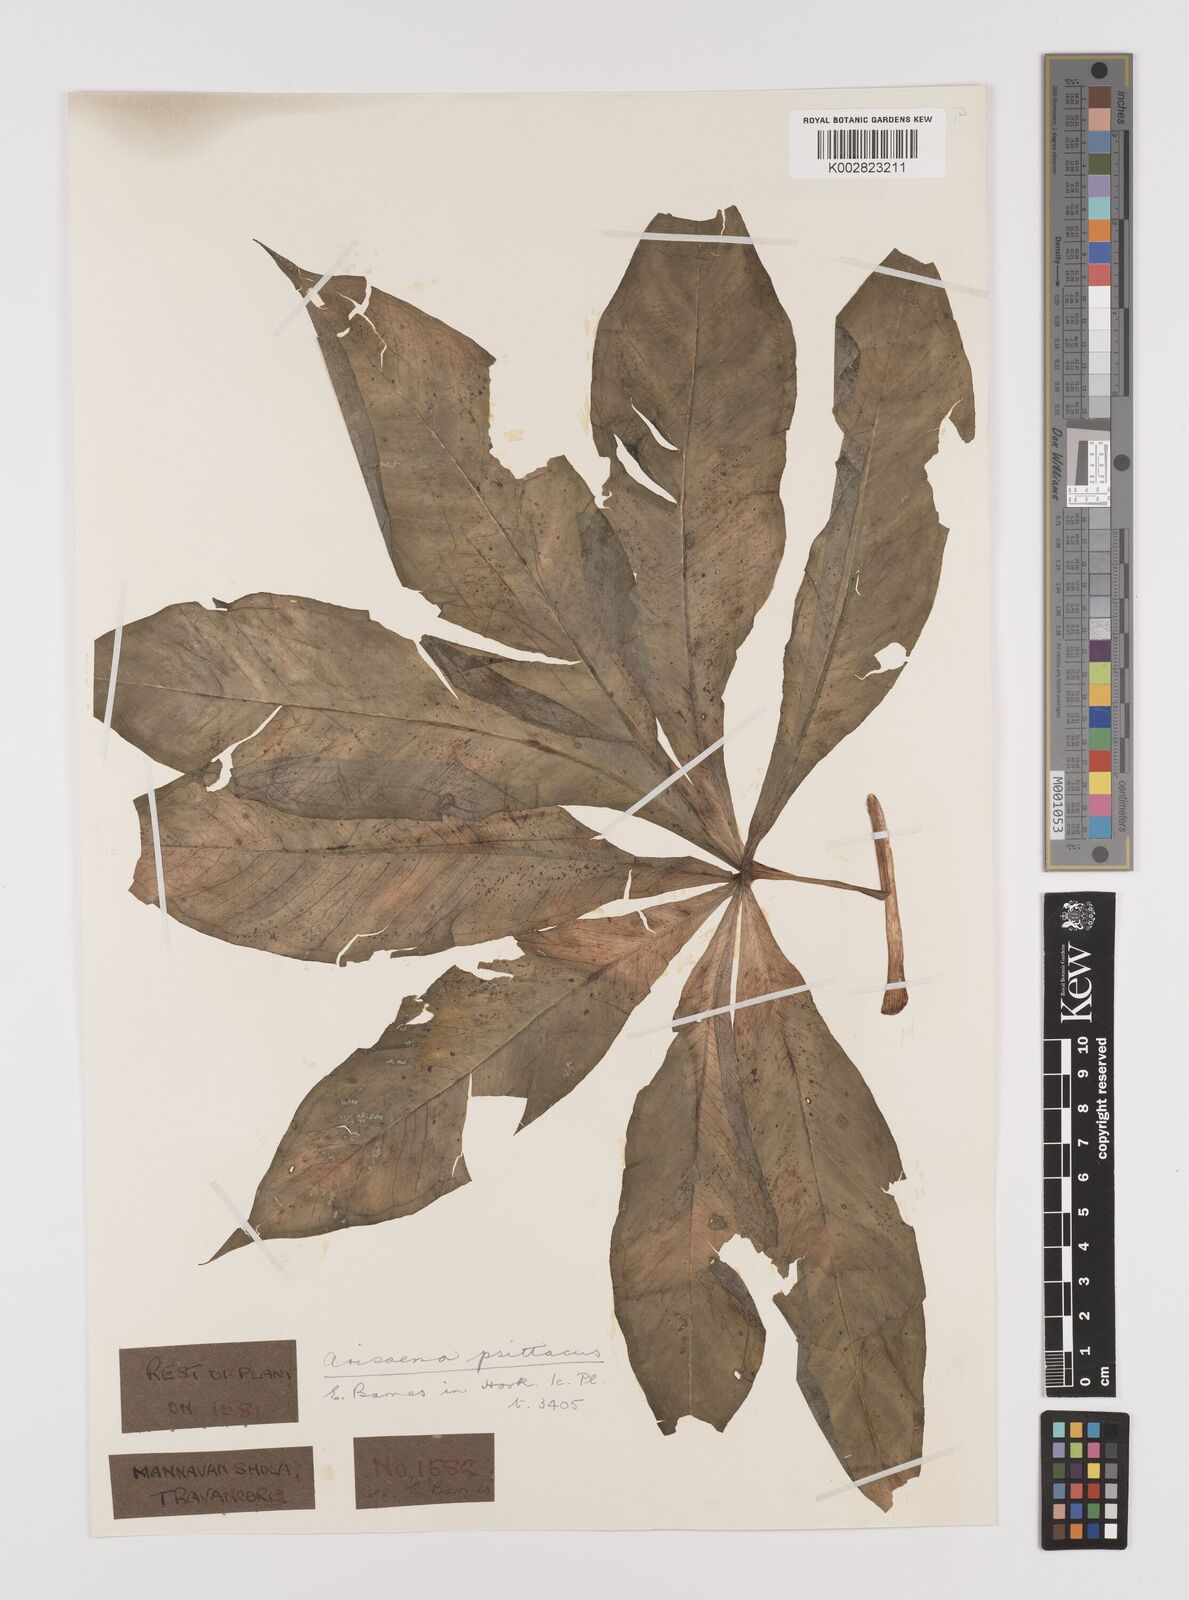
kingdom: Plantae
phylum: Tracheophyta
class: Liliopsida
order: Alismatales
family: Araceae
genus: Arisaema
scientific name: Arisaema psittacus
